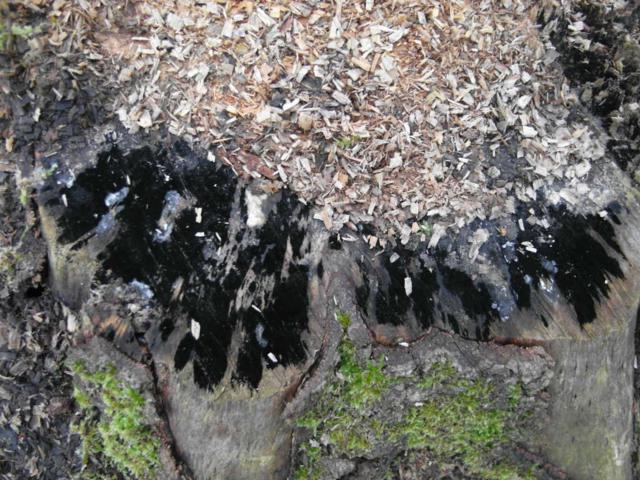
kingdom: Fungi
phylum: Ascomycota
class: Leotiomycetes
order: Helotiales
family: Helotiaceae
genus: Bispora
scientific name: Bispora pallescens
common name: måtte-snitskive
